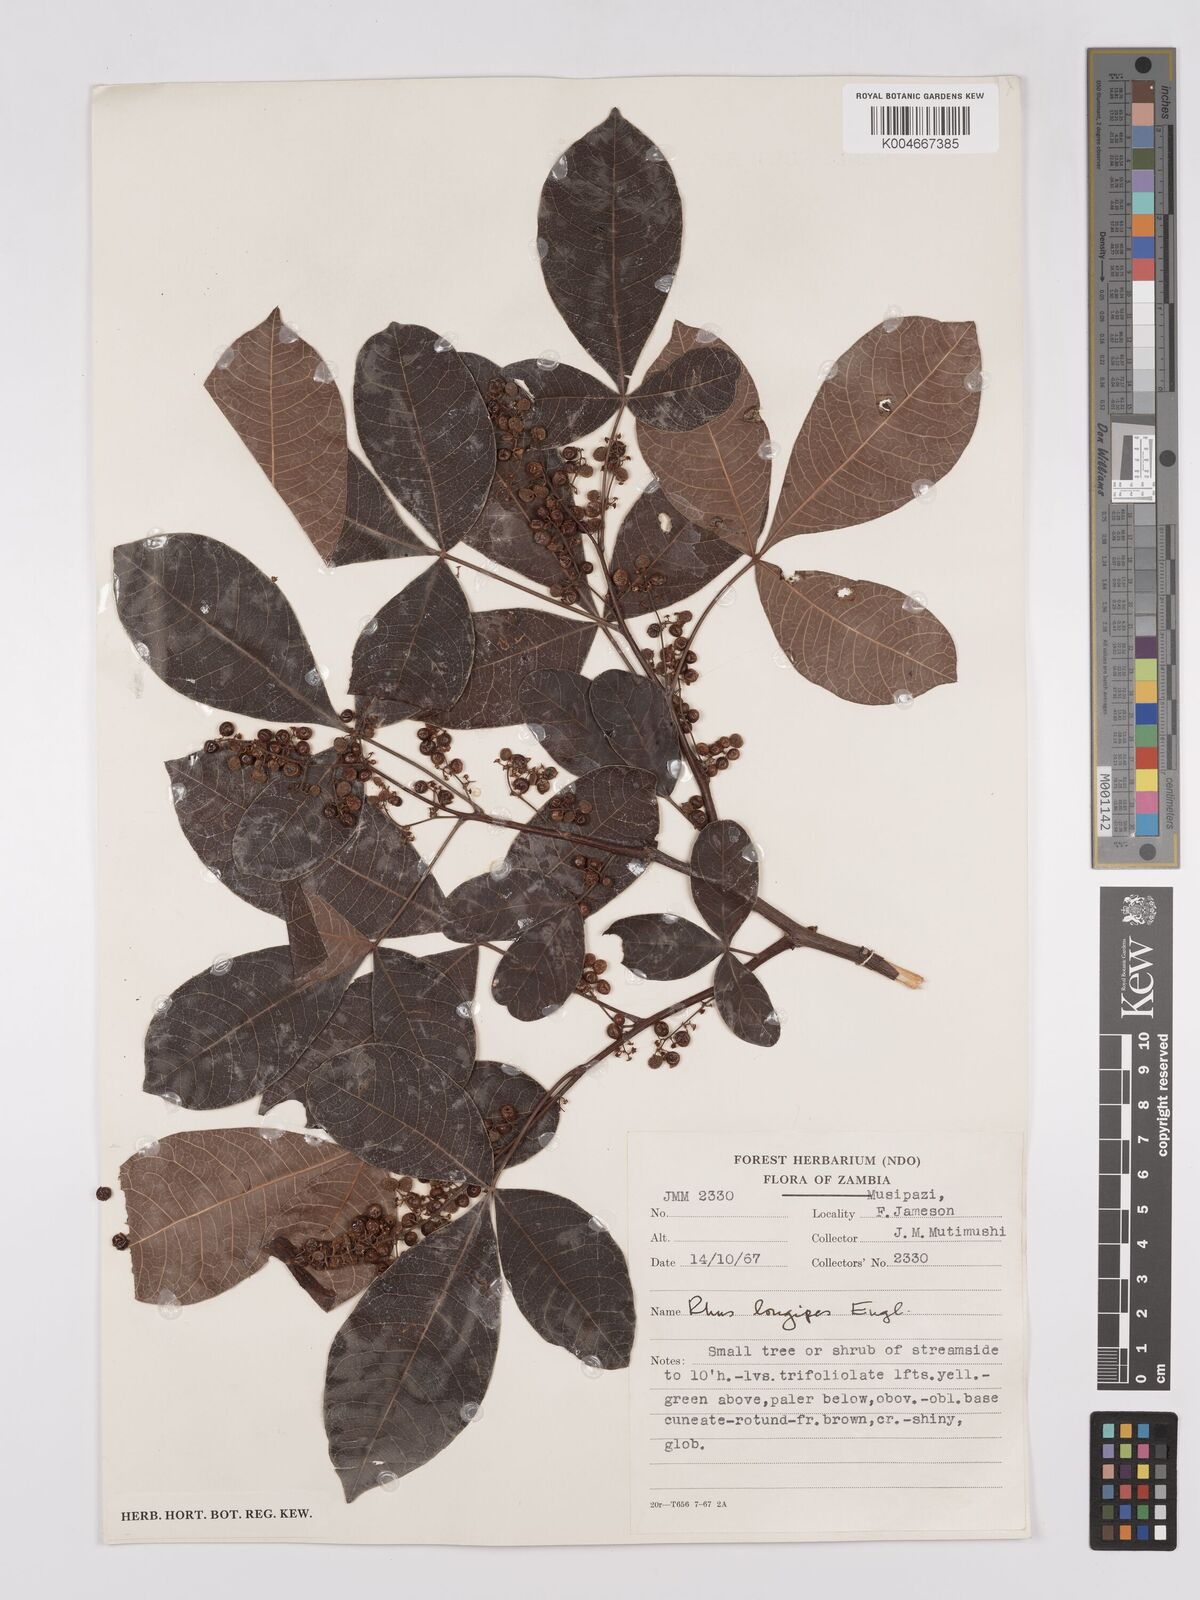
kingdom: Plantae
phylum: Tracheophyta
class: Magnoliopsida
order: Sapindales
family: Anacardiaceae
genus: Searsia
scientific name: Searsia longipes
